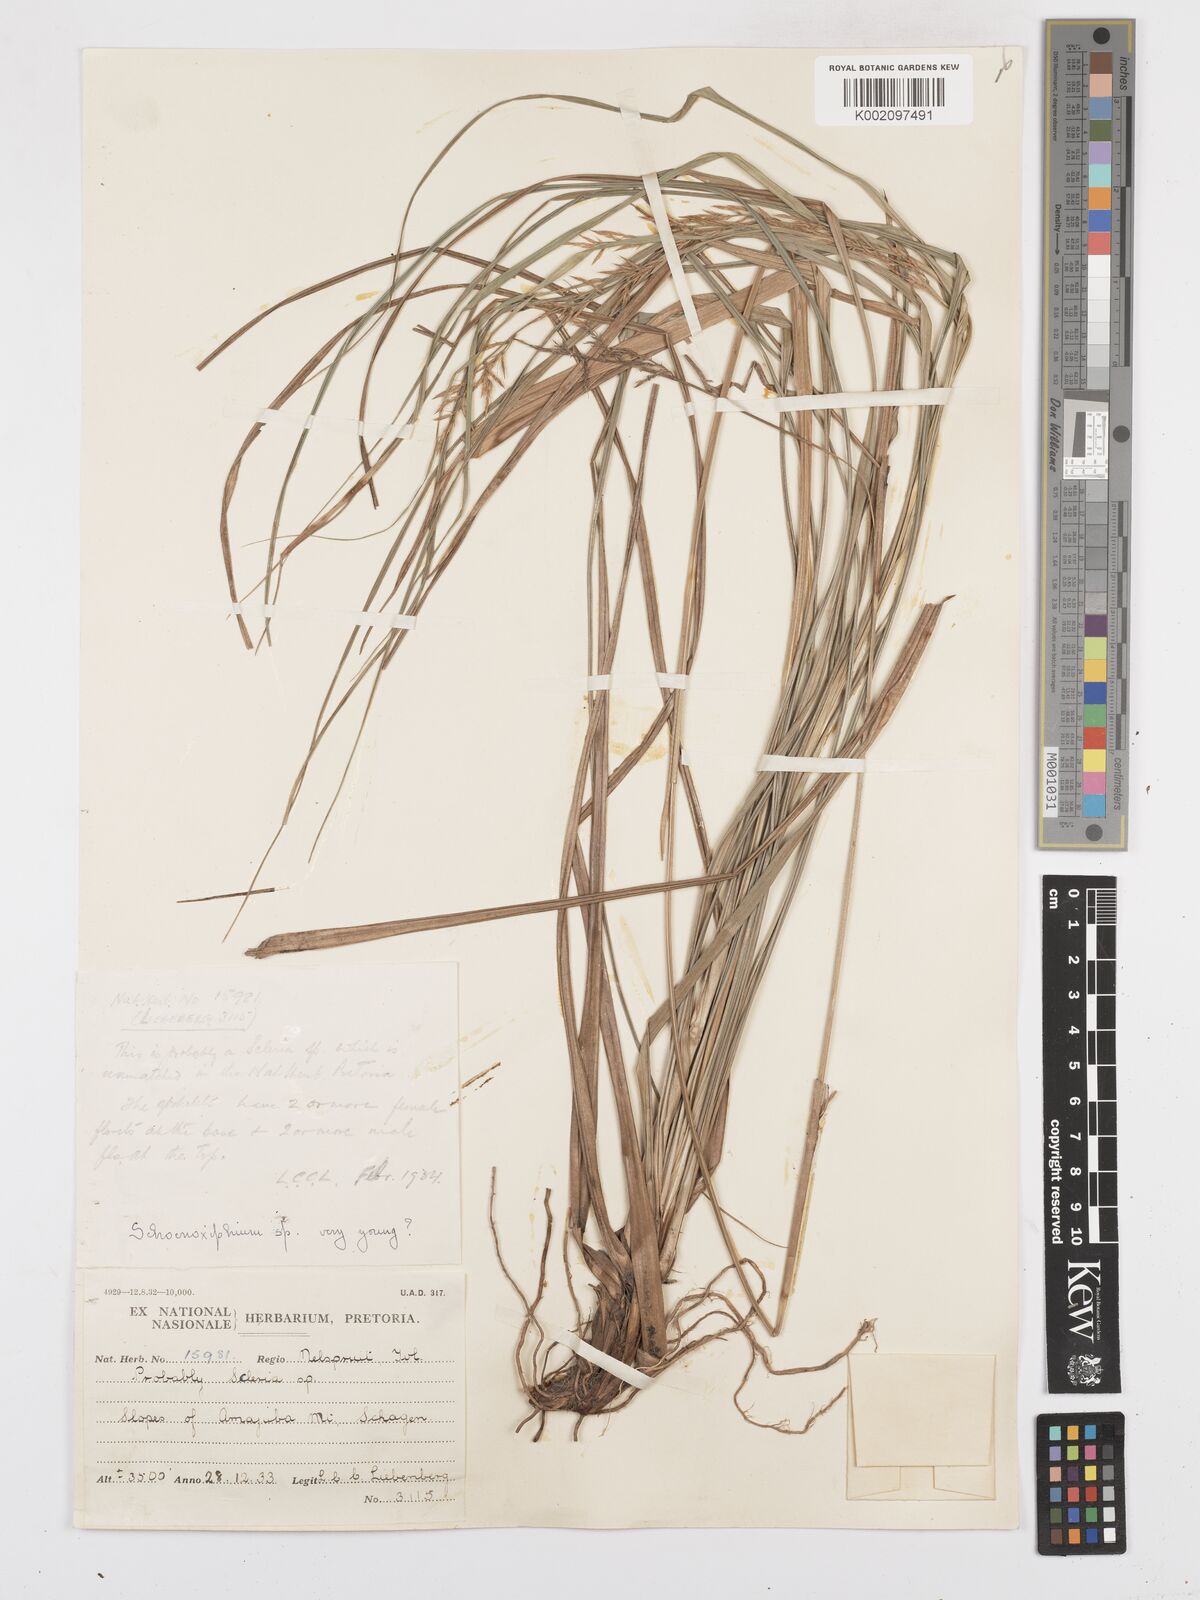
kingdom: Plantae
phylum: Tracheophyta
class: Liliopsida
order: Poales
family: Cyperaceae
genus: Carex
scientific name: Carex spicatopaniculata
